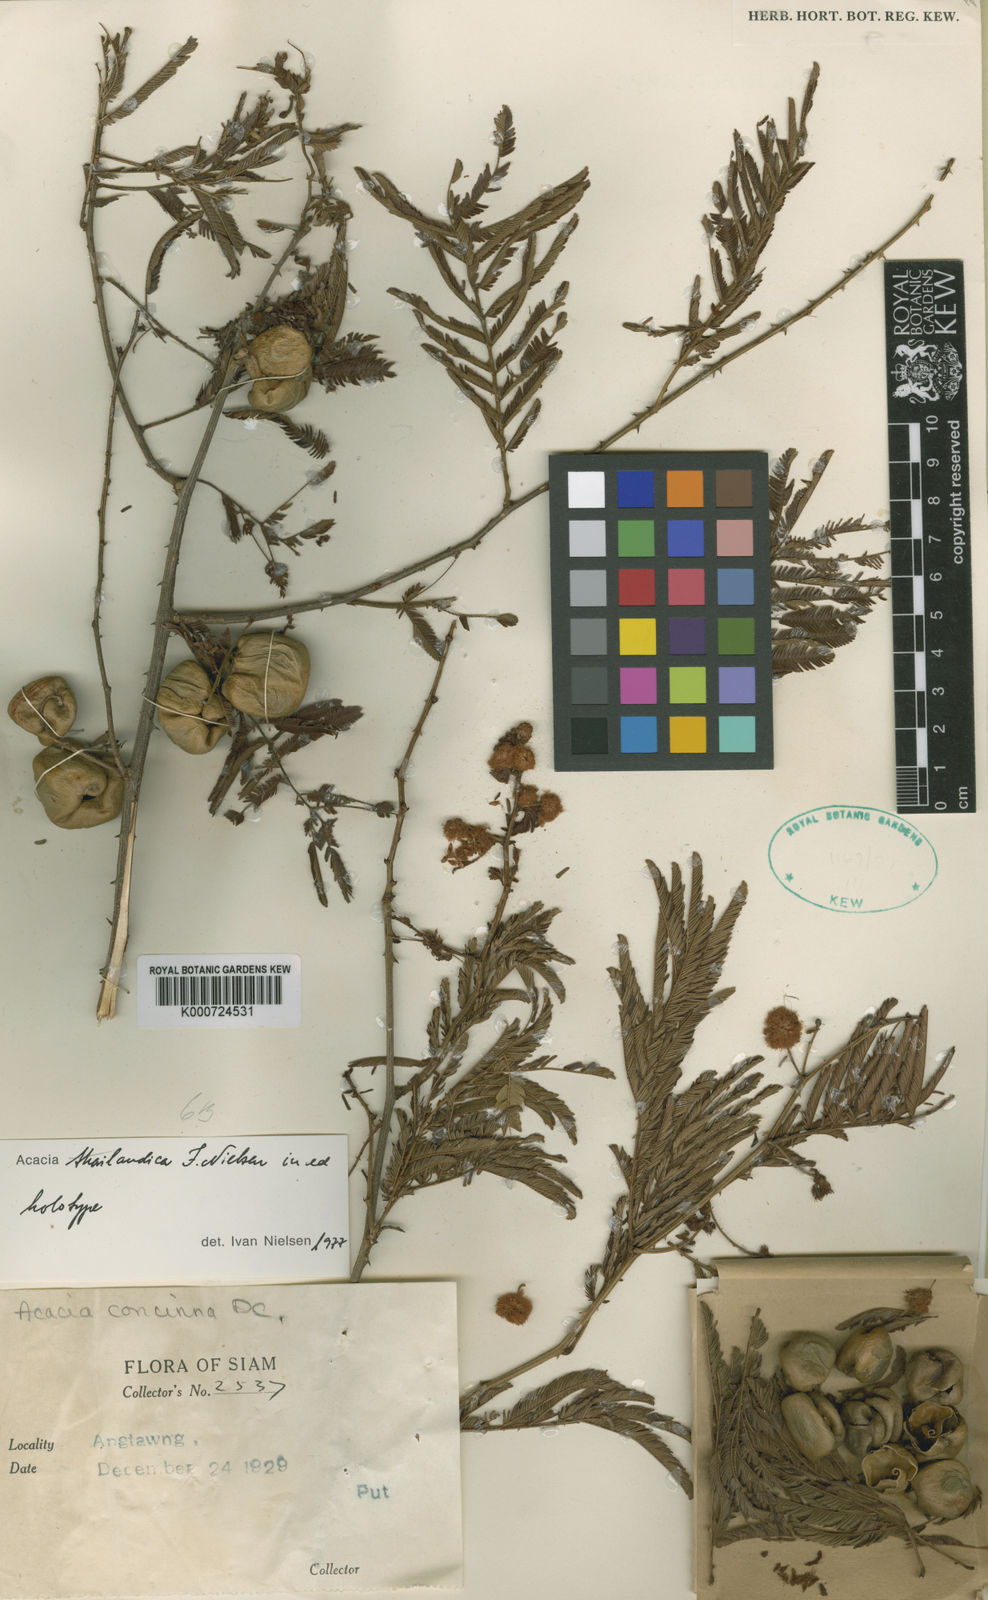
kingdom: Plantae
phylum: Tracheophyta
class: Magnoliopsida
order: Fabales
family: Fabaceae
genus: Senegalia
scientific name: Senegalia thailandica
